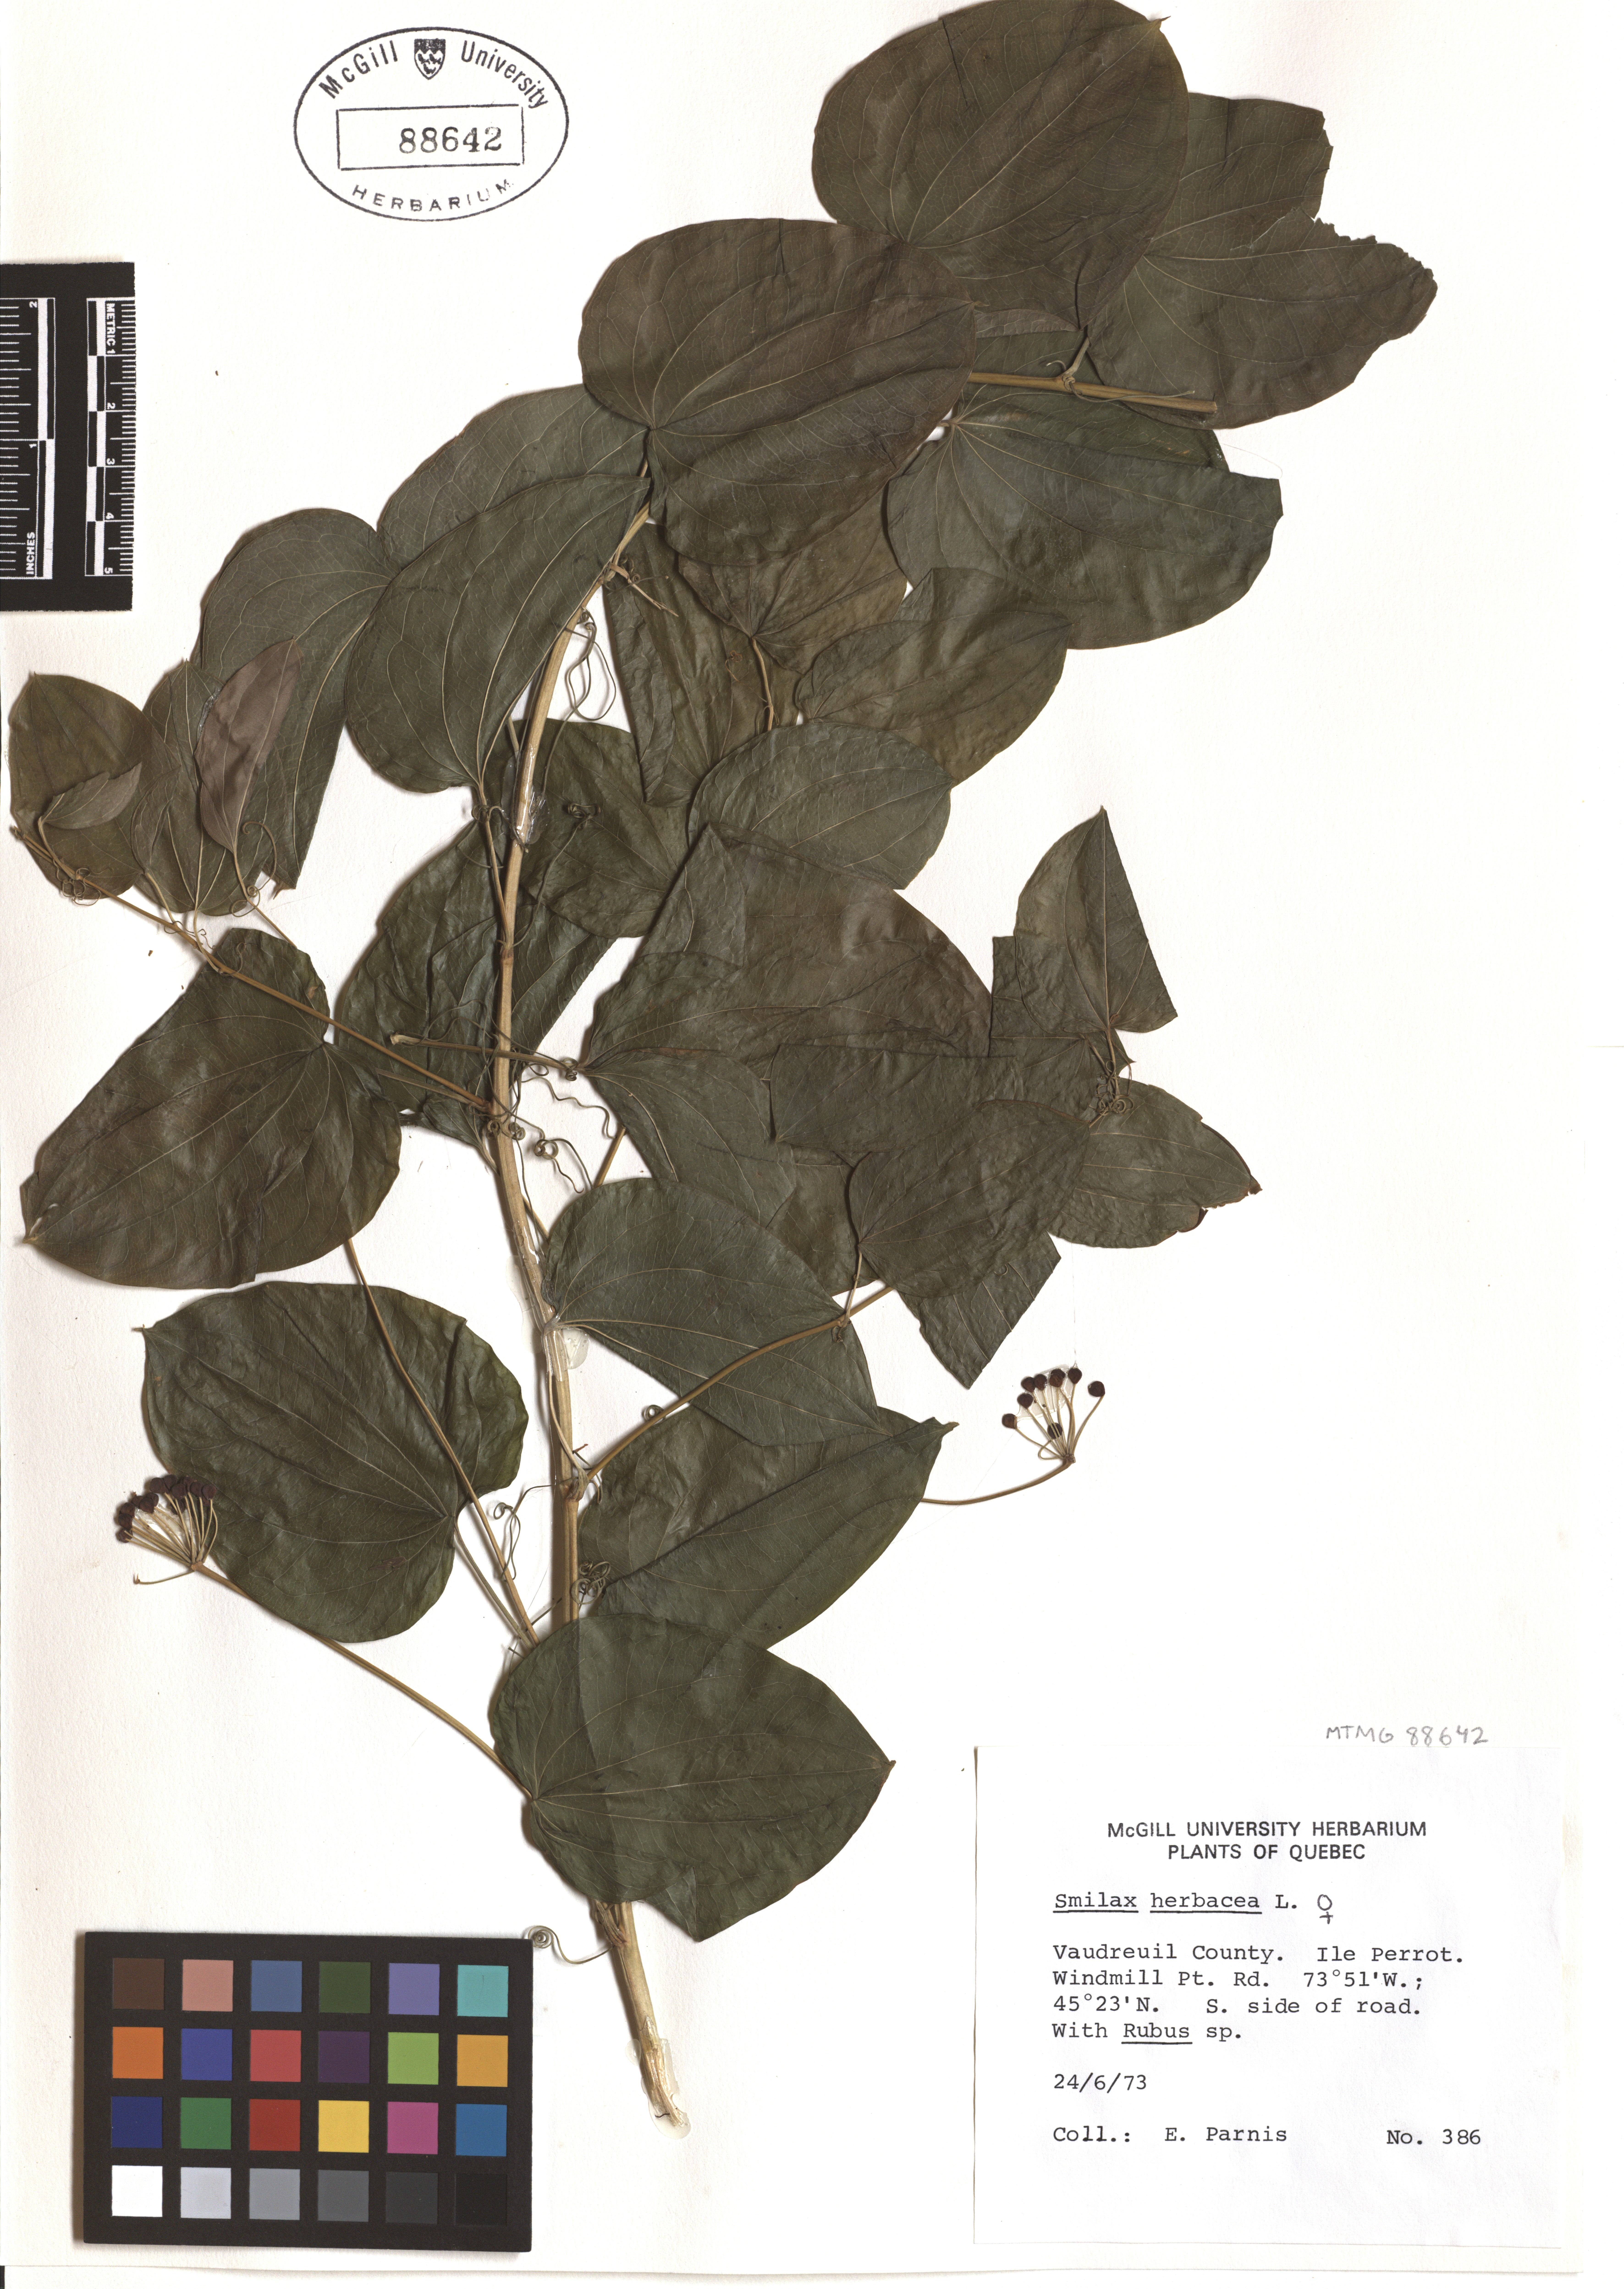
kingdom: Plantae
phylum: Tracheophyta
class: Liliopsida
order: Liliales
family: Smilacaceae
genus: Smilax
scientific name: Smilax herbacea
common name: Jacob's-ladder
